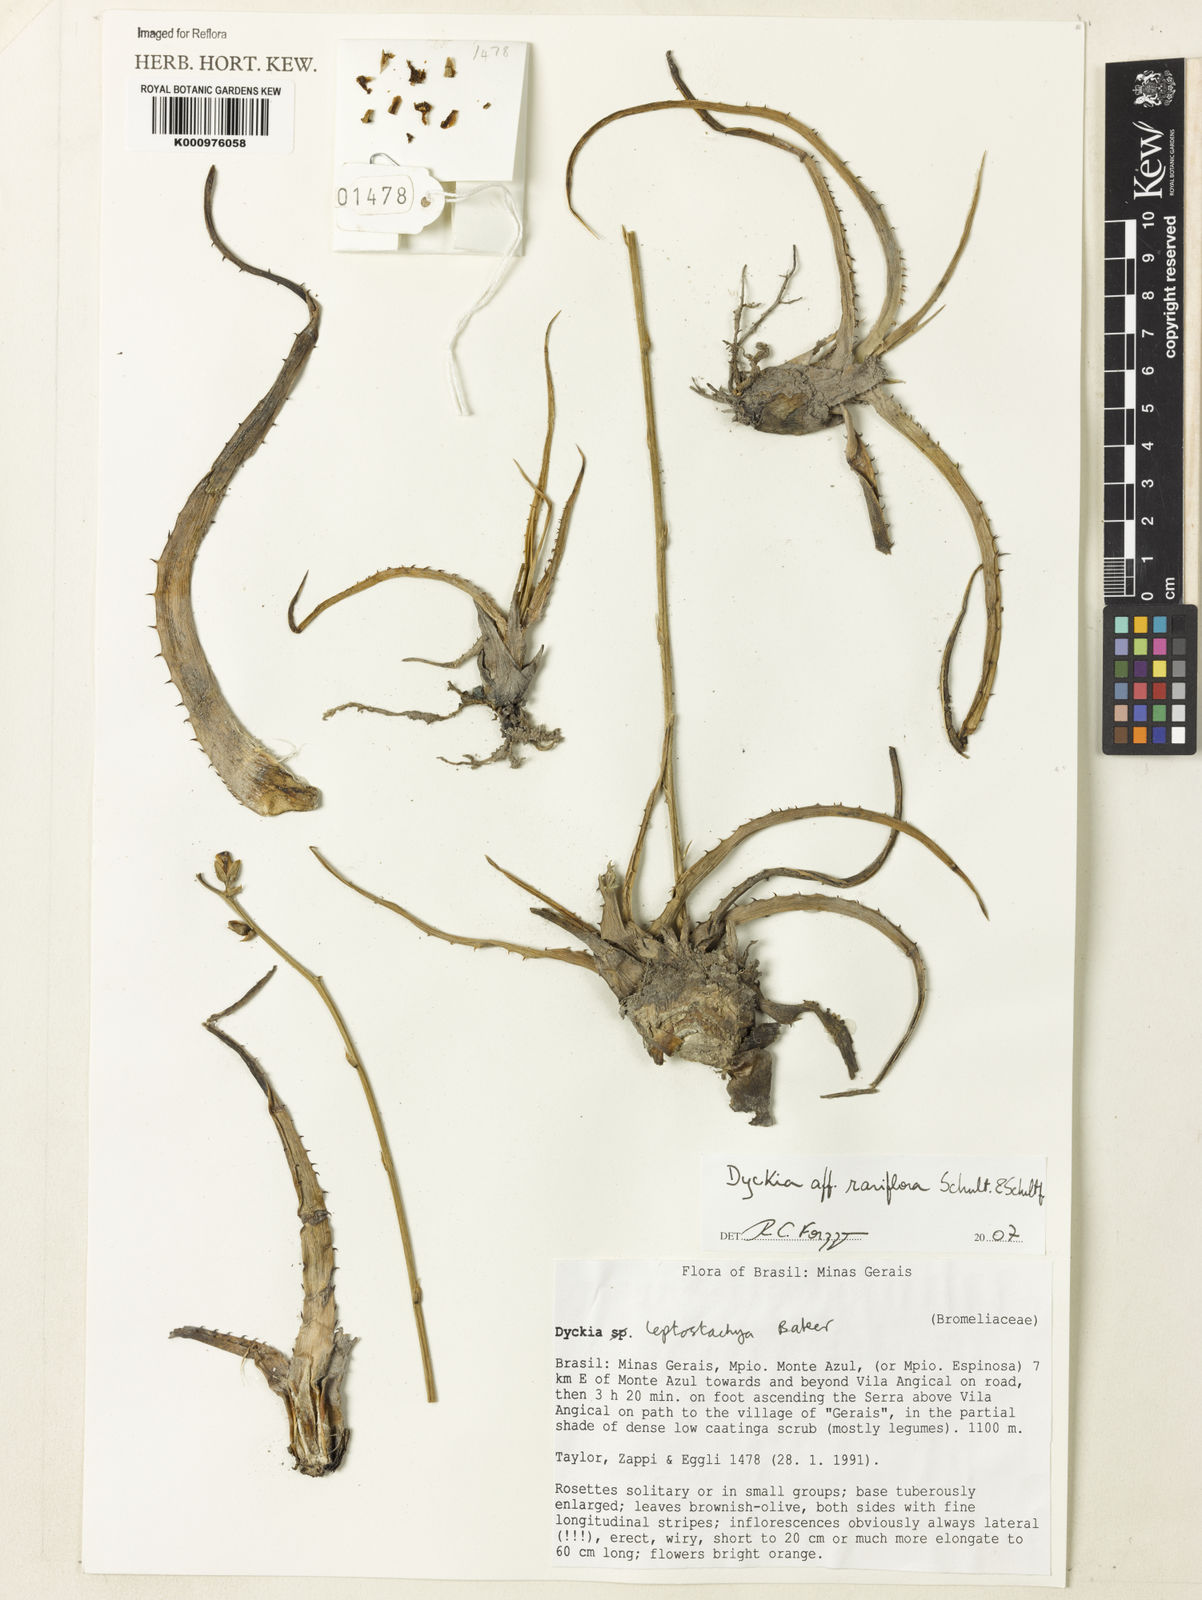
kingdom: Plantae
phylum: Tracheophyta
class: Liliopsida
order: Poales
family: Bromeliaceae
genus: Dyckia
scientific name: Dyckia rariflora
